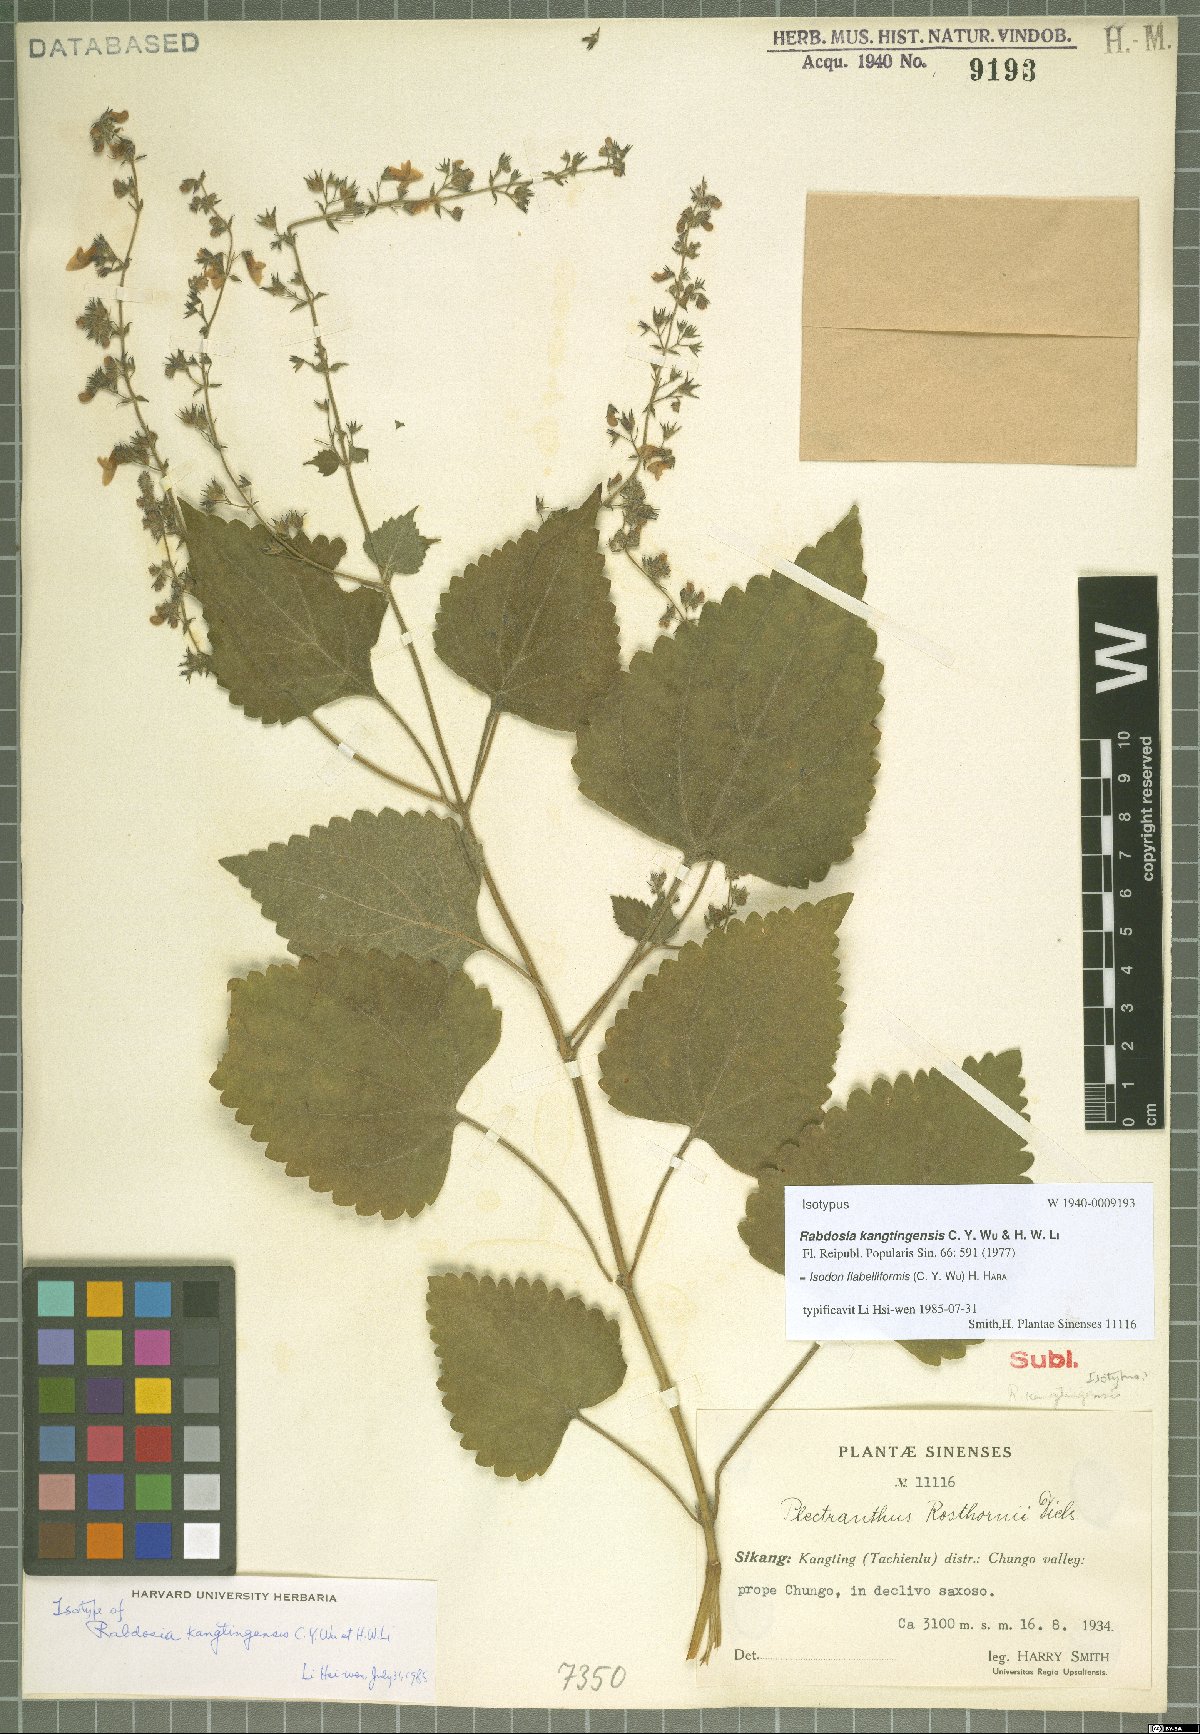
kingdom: Plantae
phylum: Tracheophyta
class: Magnoliopsida
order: Lamiales
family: Lamiaceae
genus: Isodon
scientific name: Isodon flabelliformis
